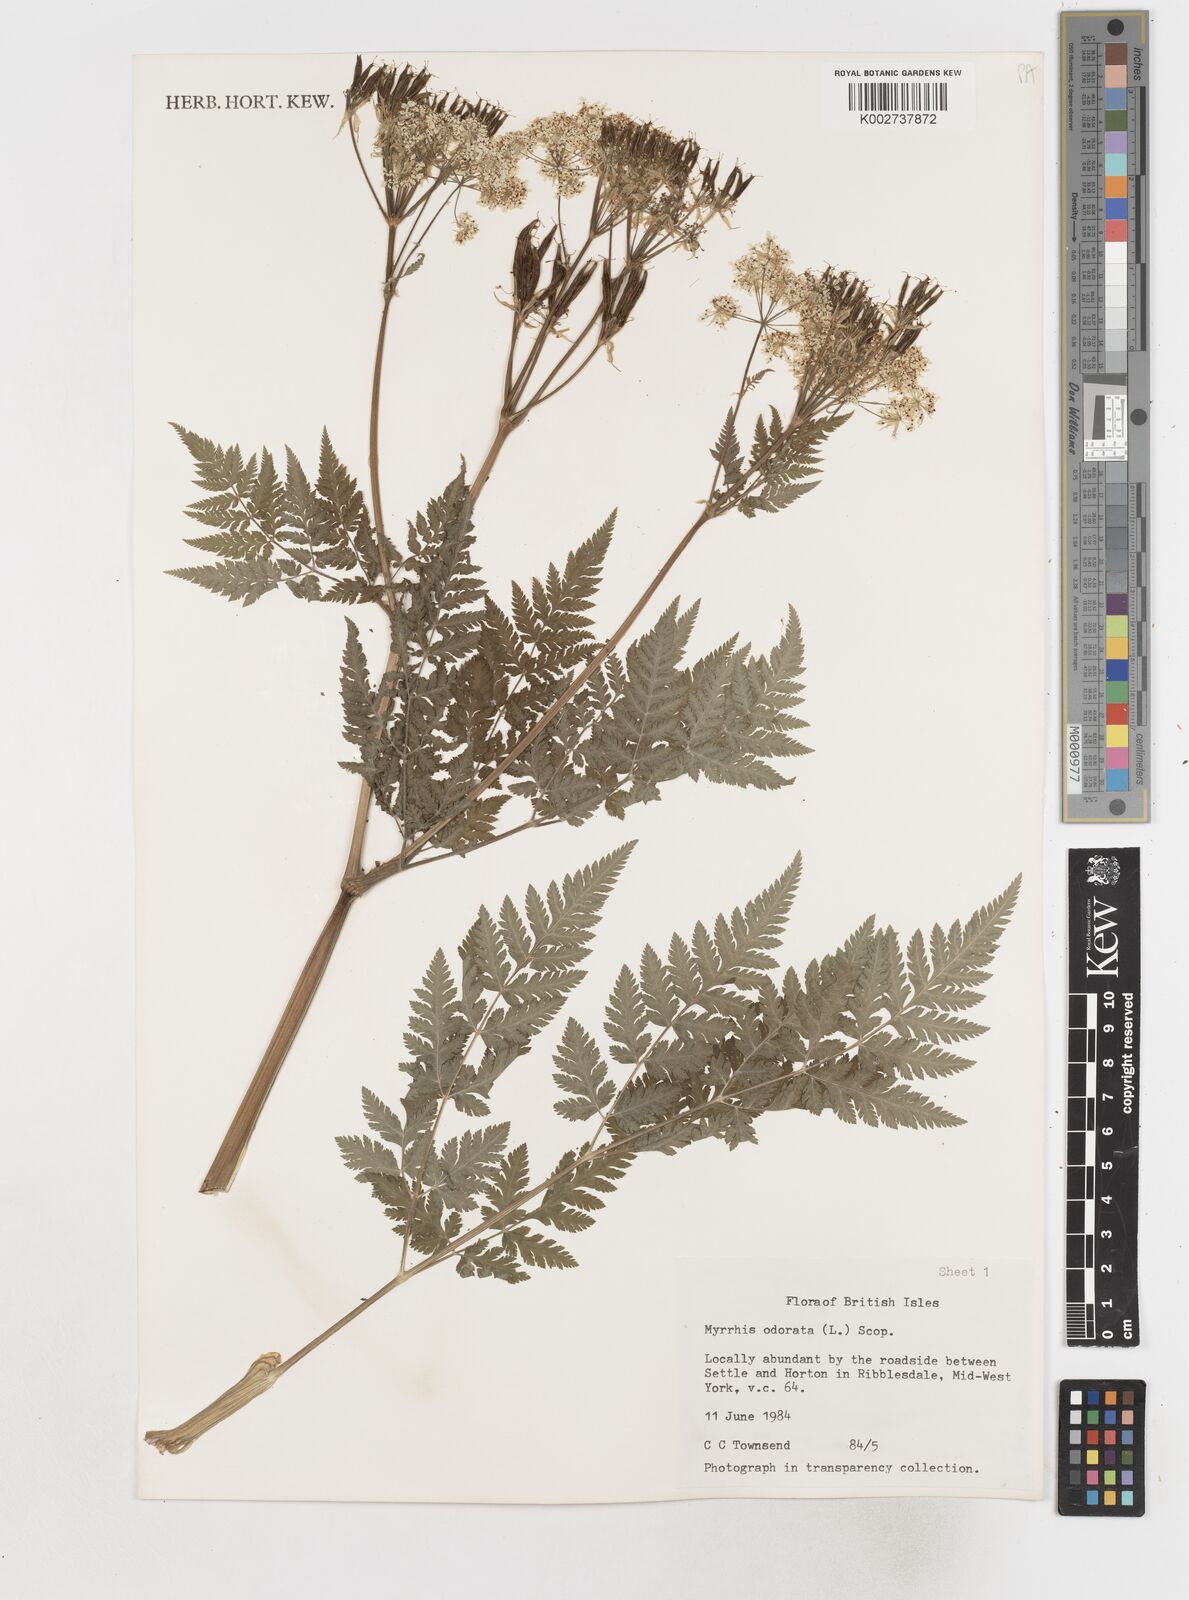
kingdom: Plantae
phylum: Tracheophyta
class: Magnoliopsida
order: Apiales
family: Apiaceae
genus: Myrrhis
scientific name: Myrrhis odorata
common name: Sweet cicely
